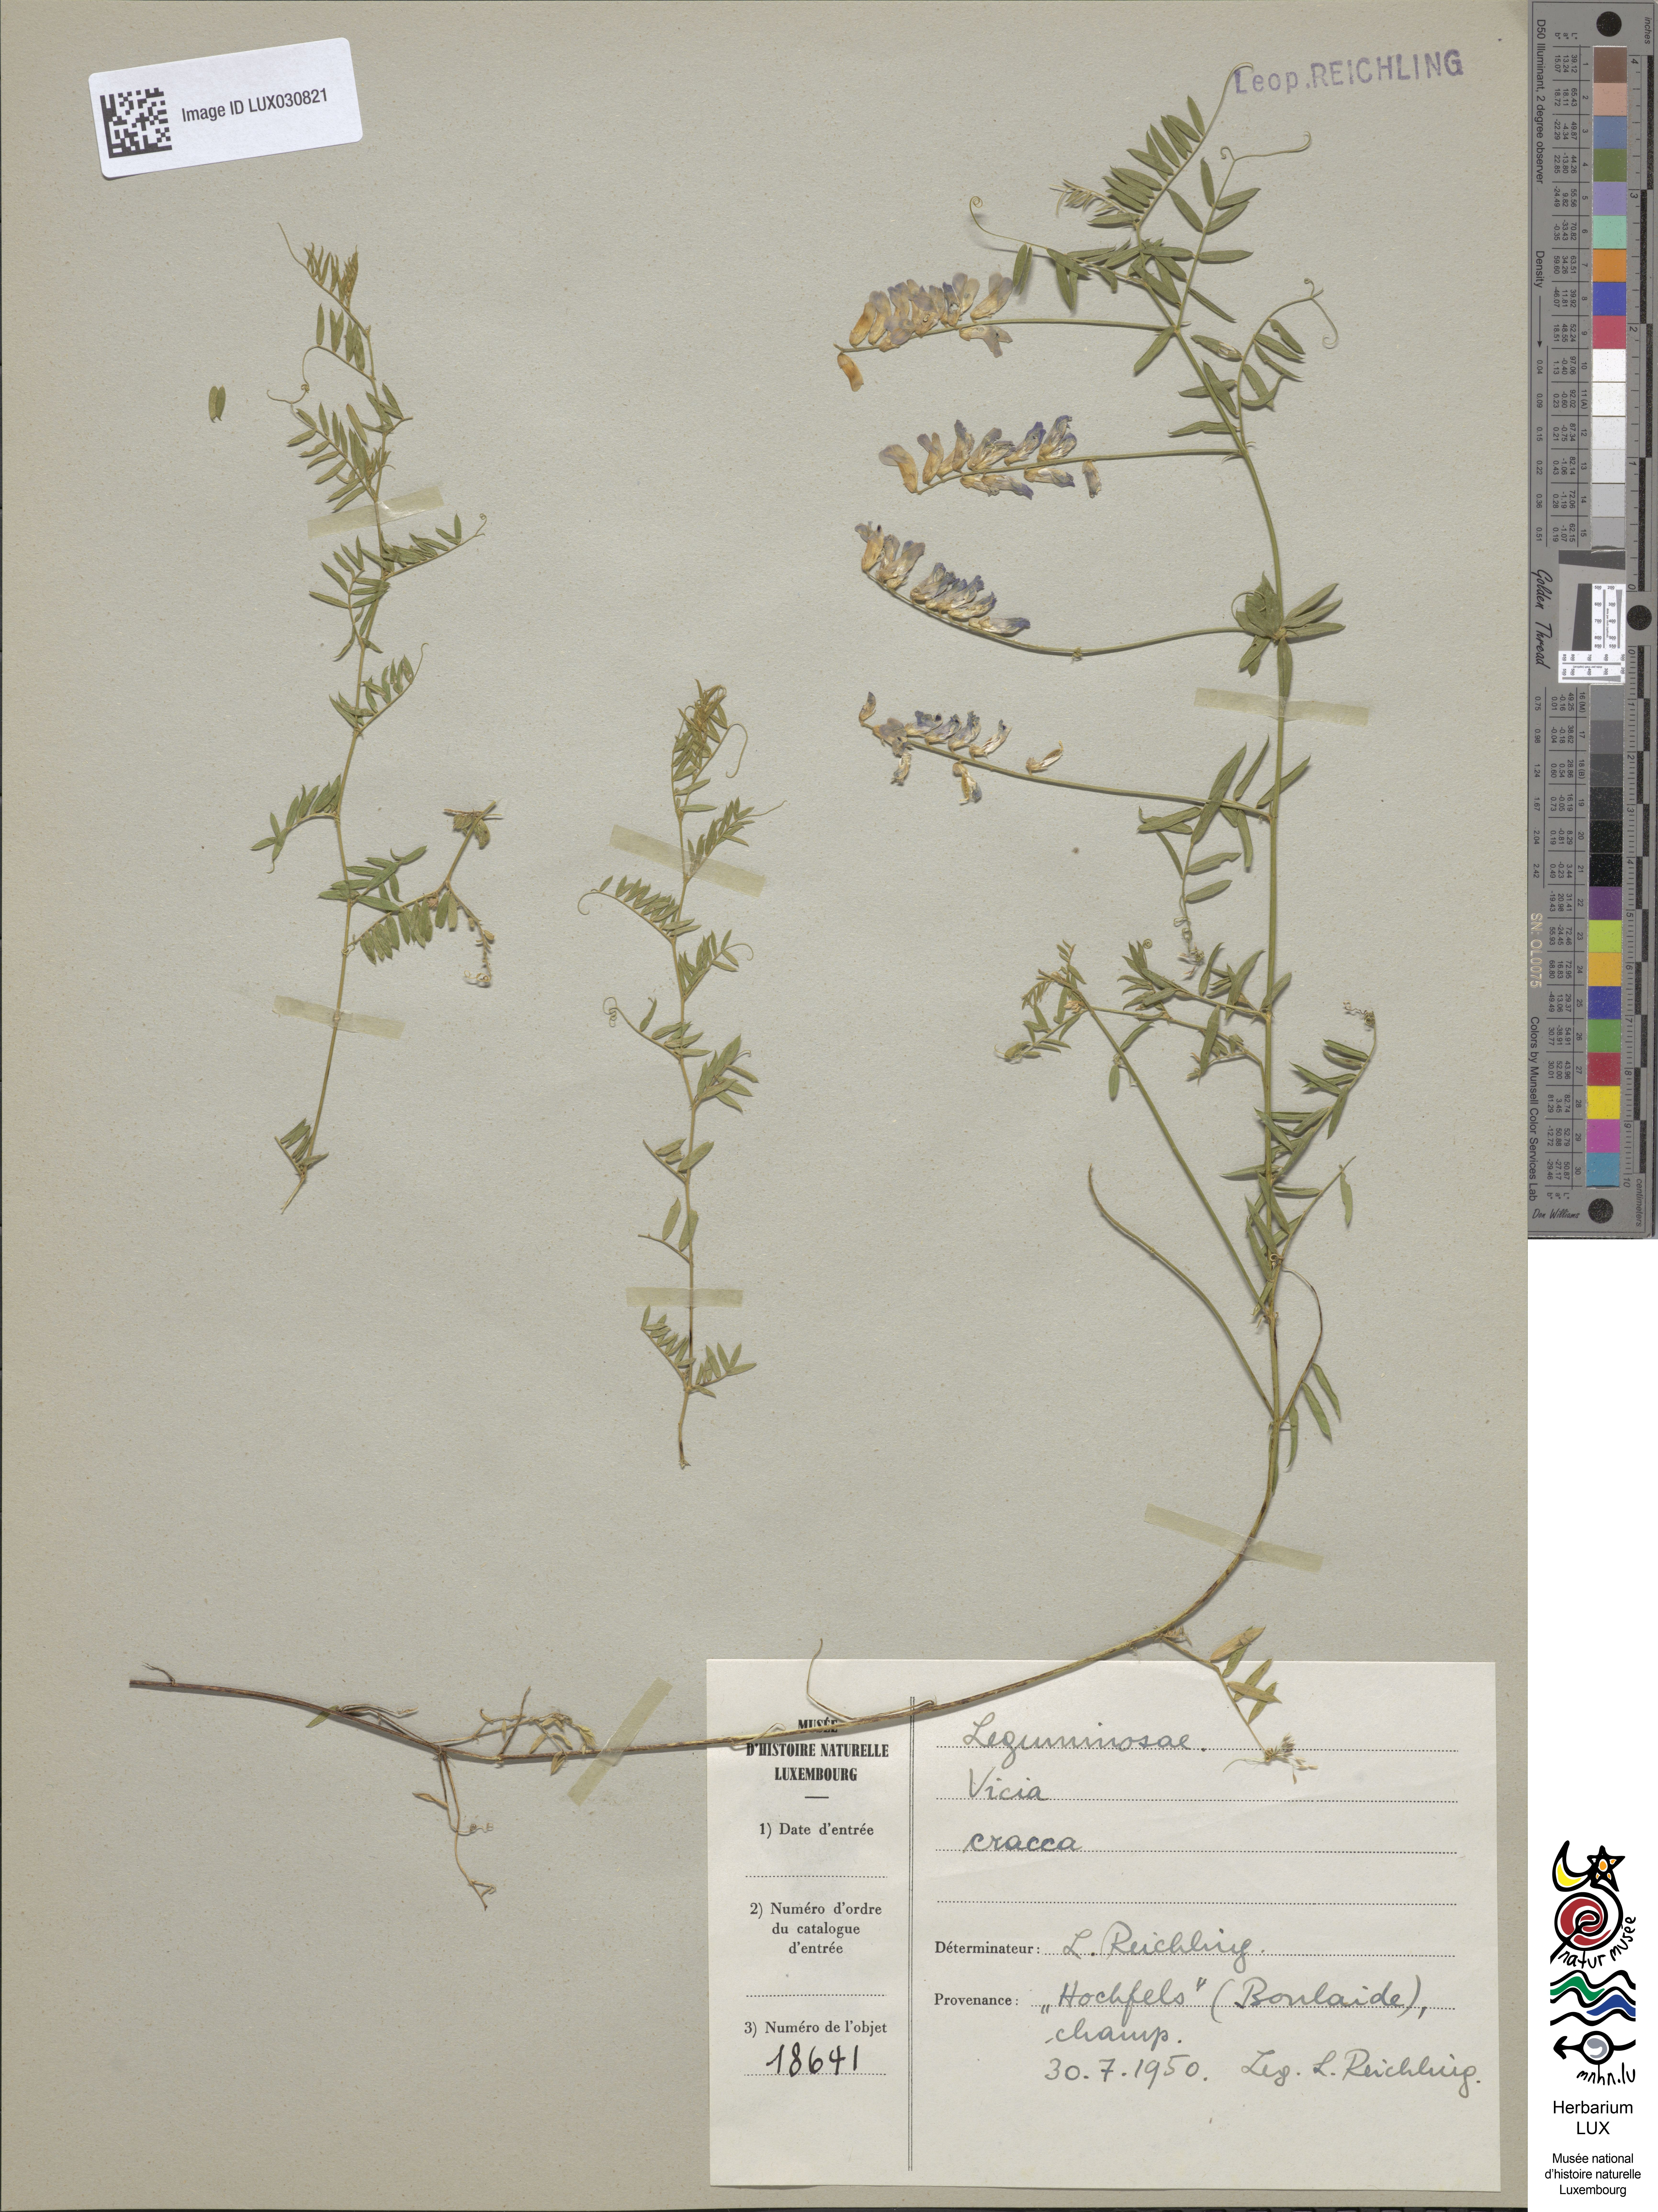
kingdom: Plantae
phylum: Tracheophyta
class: Magnoliopsida
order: Fabales
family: Fabaceae
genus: Vicia
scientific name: Vicia cracca
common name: Bird vetch
